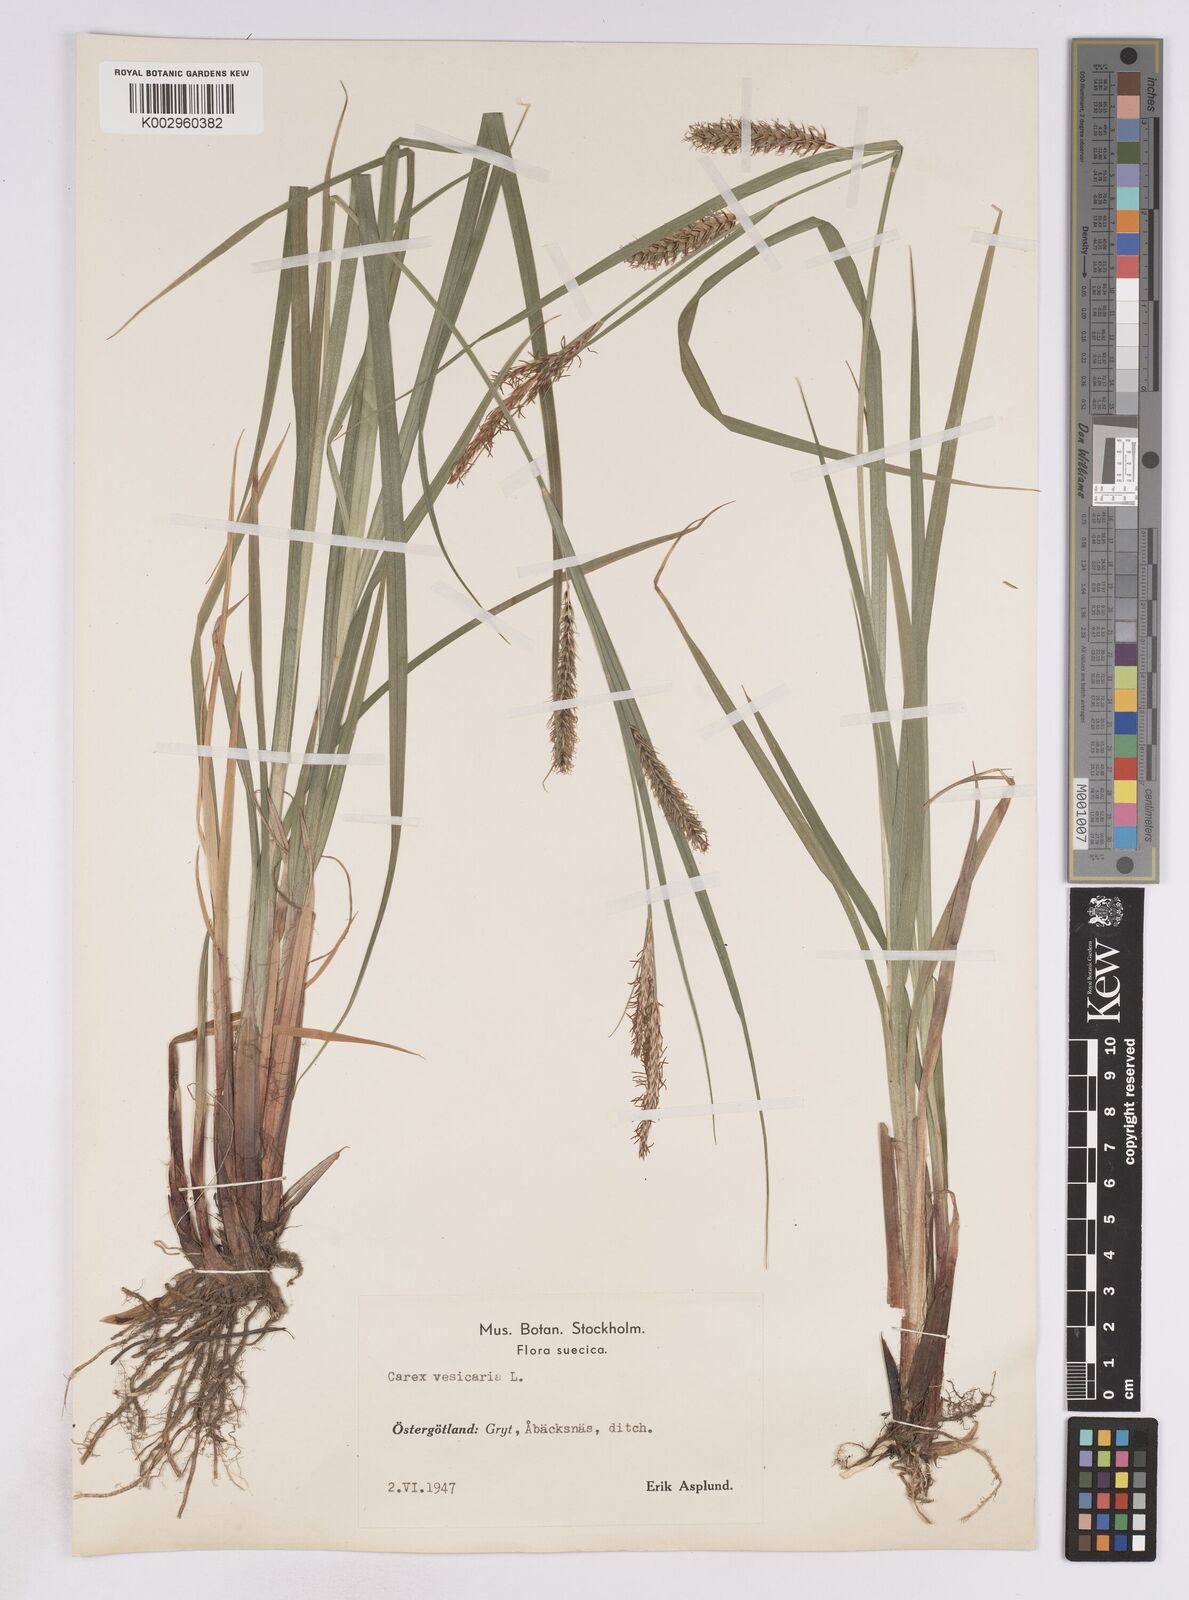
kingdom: Plantae
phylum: Tracheophyta
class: Liliopsida
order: Poales
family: Cyperaceae
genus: Carex
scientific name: Carex vesicaria
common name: Bladder-sedge
